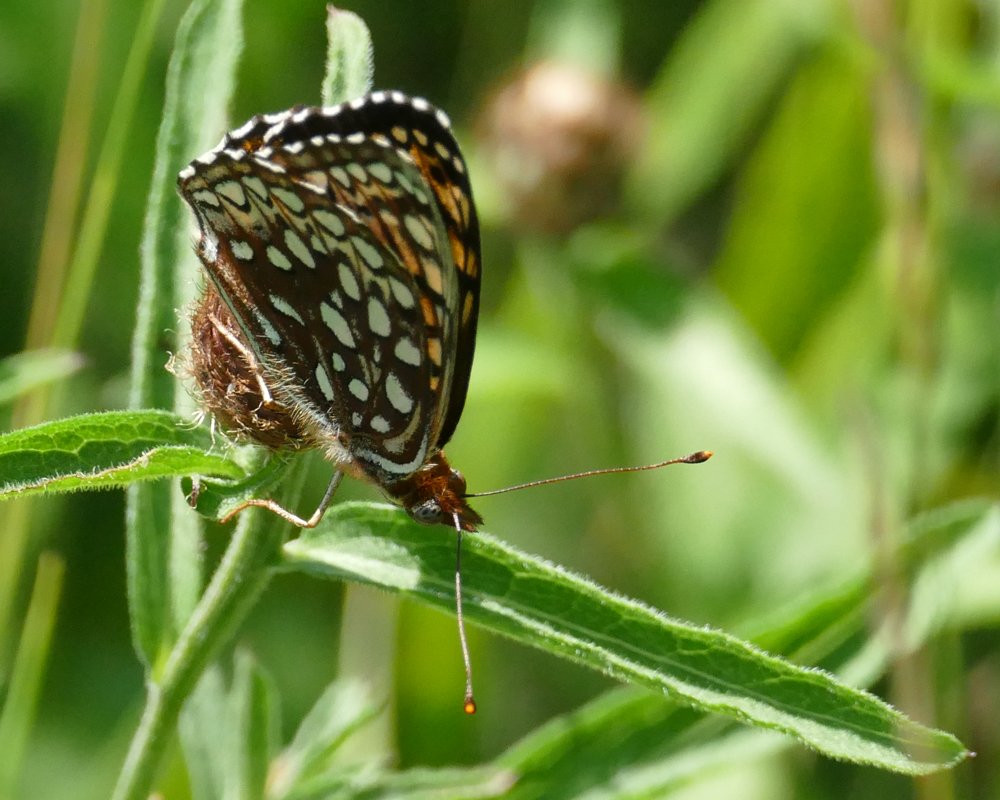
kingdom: Animalia
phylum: Arthropoda
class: Insecta
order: Lepidoptera
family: Nymphalidae
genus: Speyeria
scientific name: Speyeria atlantis
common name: Atlantis Fritillary
